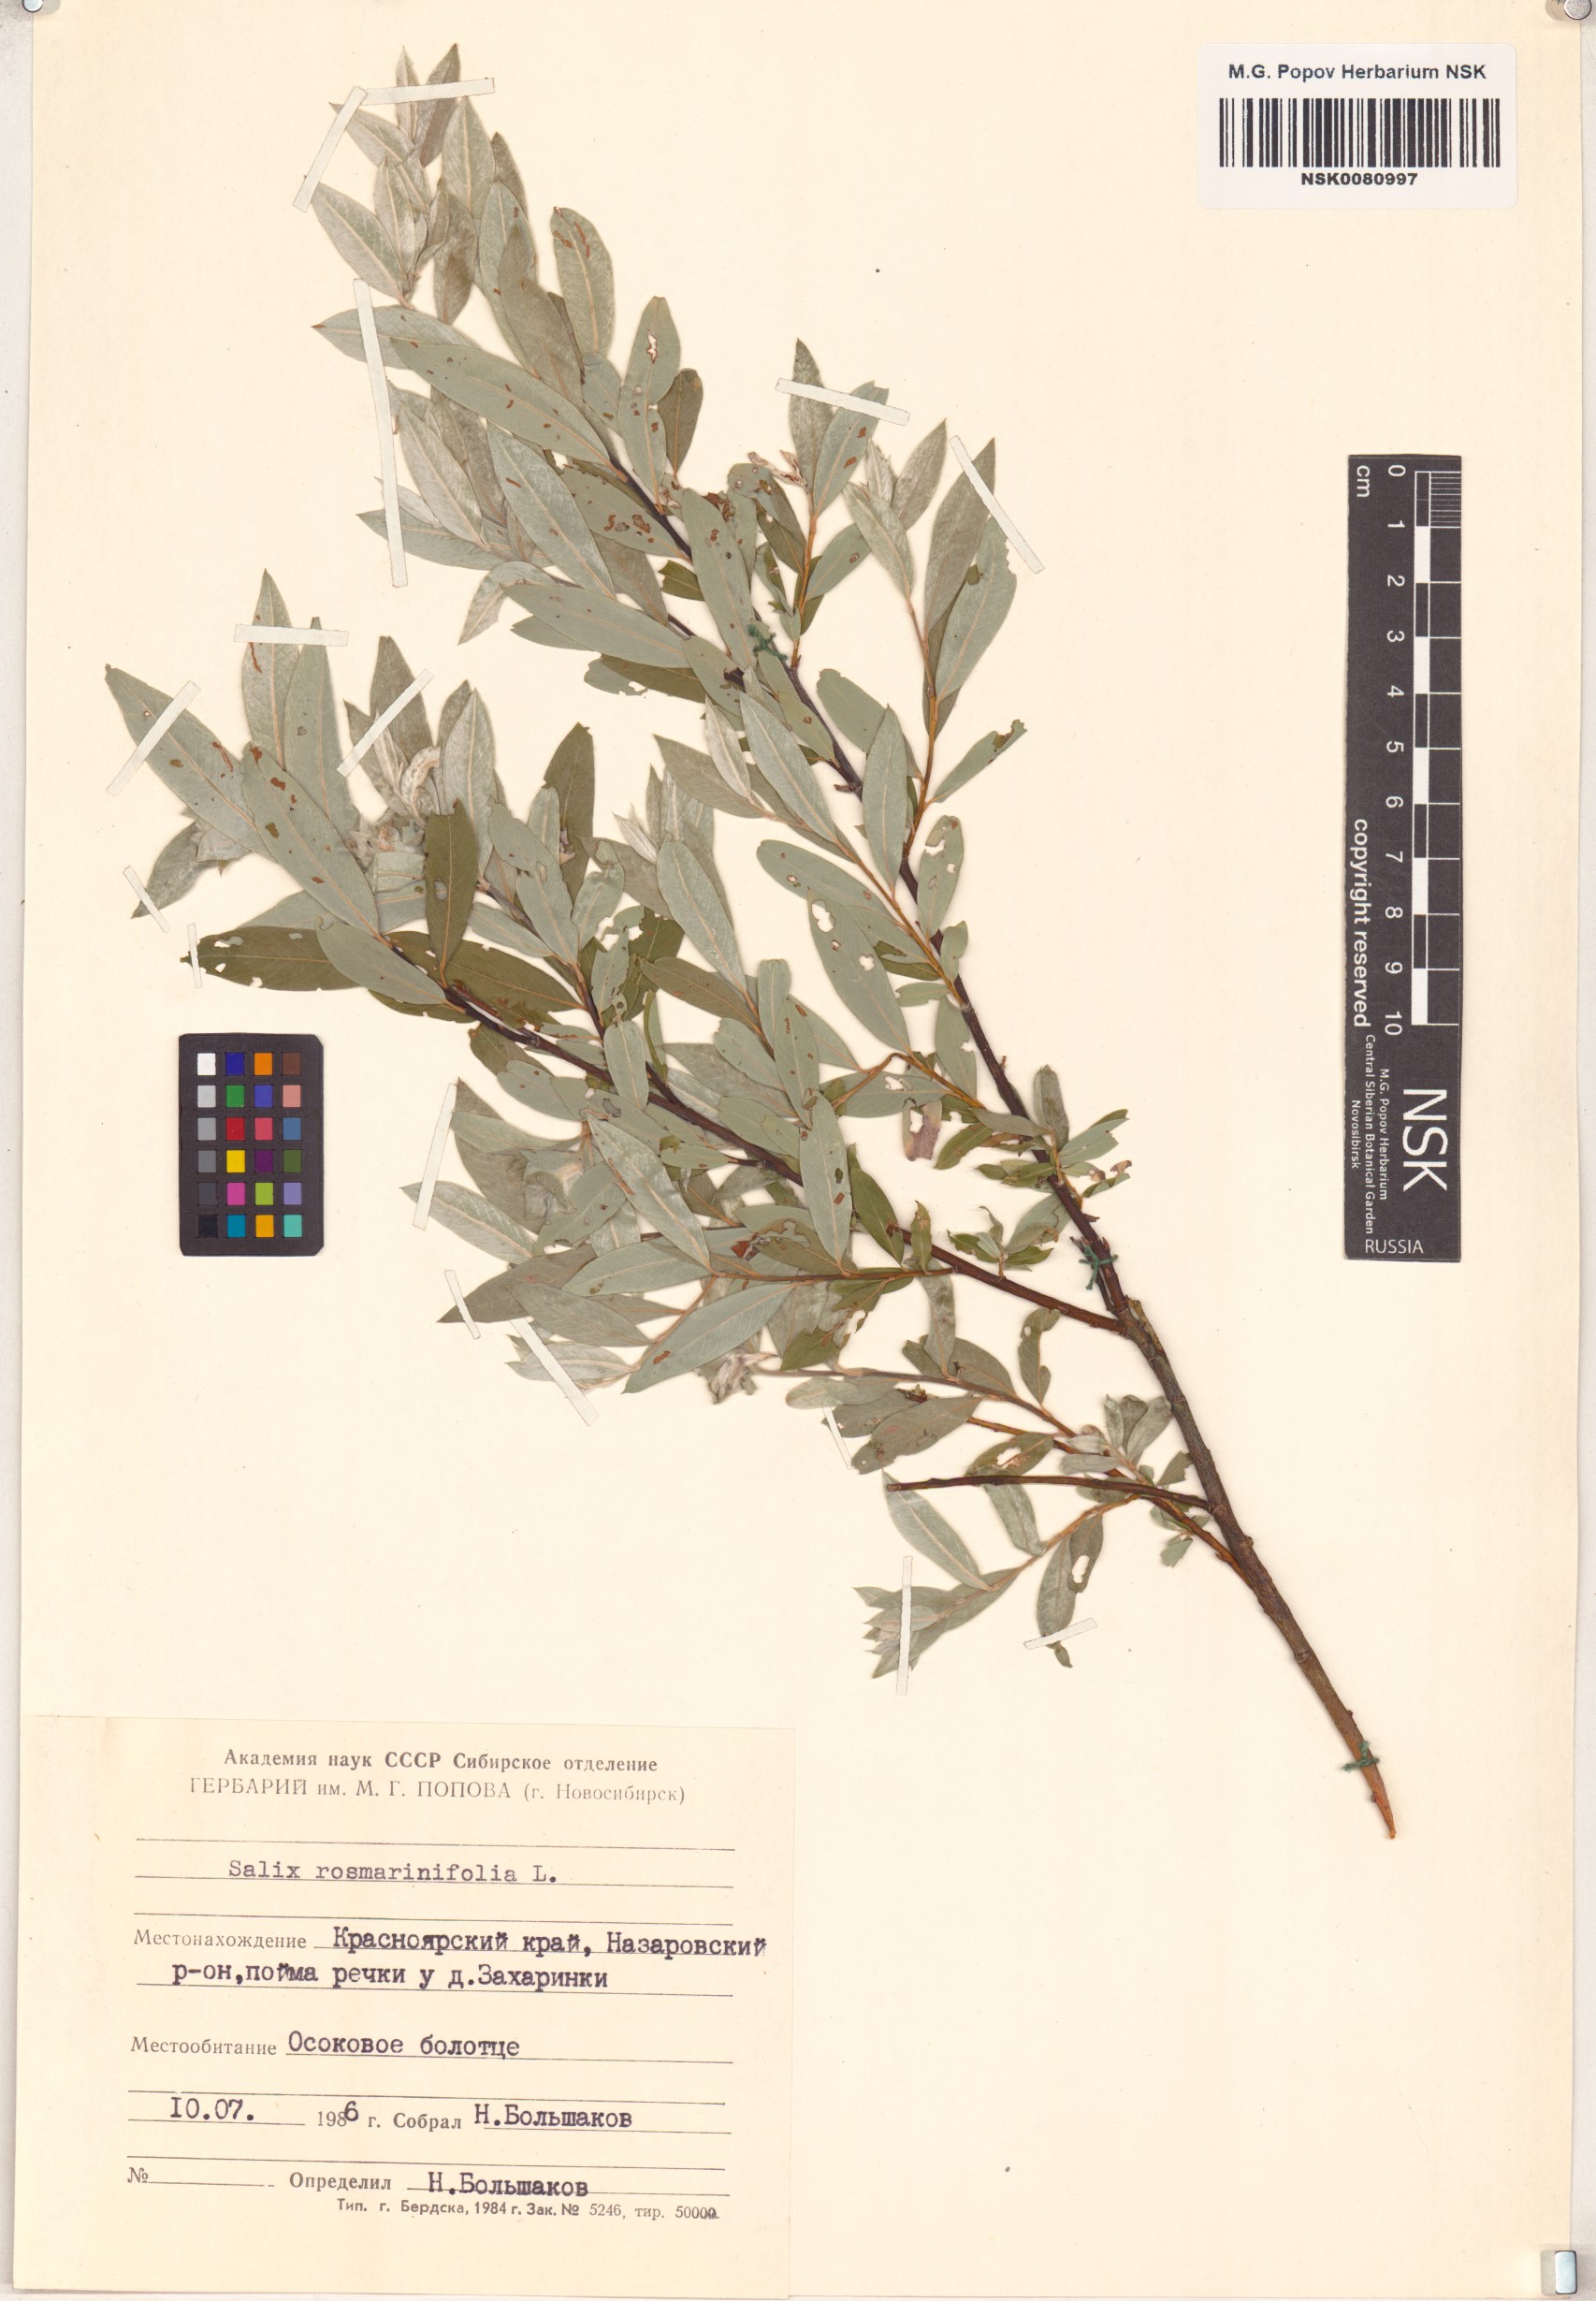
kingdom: Plantae
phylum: Tracheophyta
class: Magnoliopsida
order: Malpighiales
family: Salicaceae
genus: Salix
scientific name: Salix rosmarinifolia
